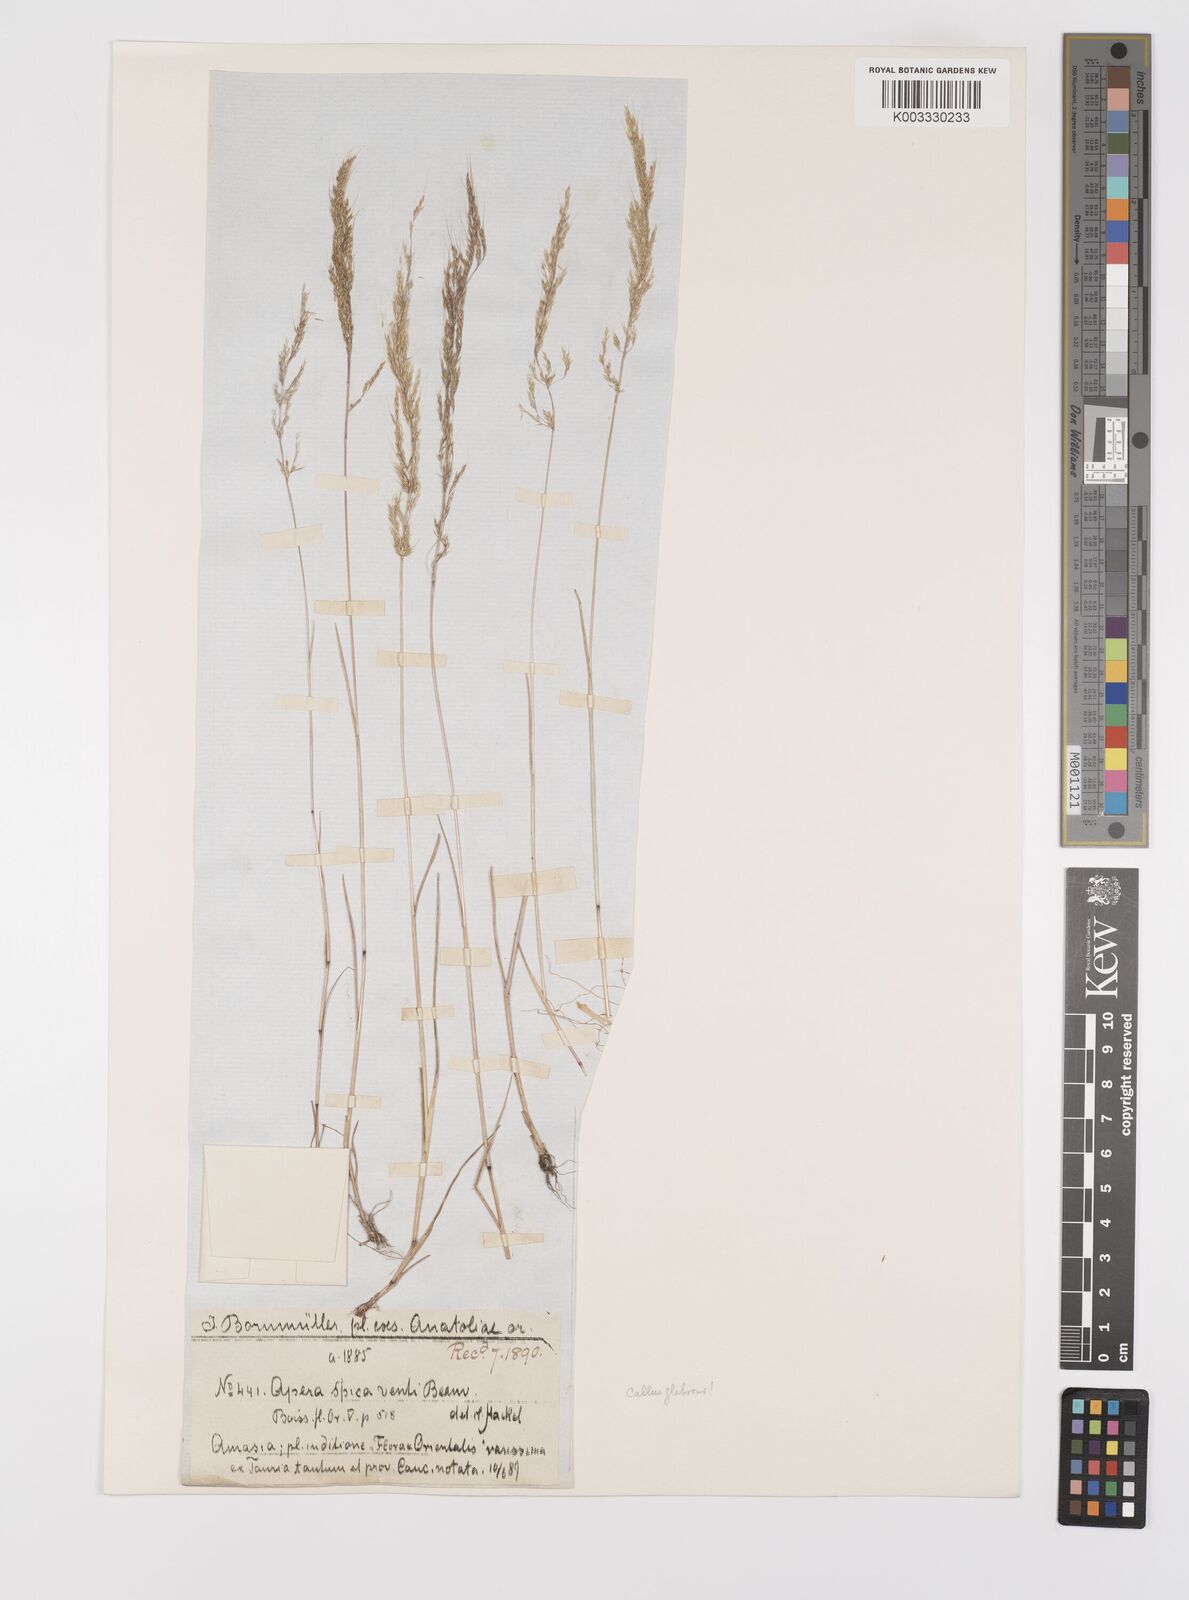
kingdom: Plantae
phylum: Tracheophyta
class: Liliopsida
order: Poales
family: Poaceae
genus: Apera
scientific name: Apera intermedia
